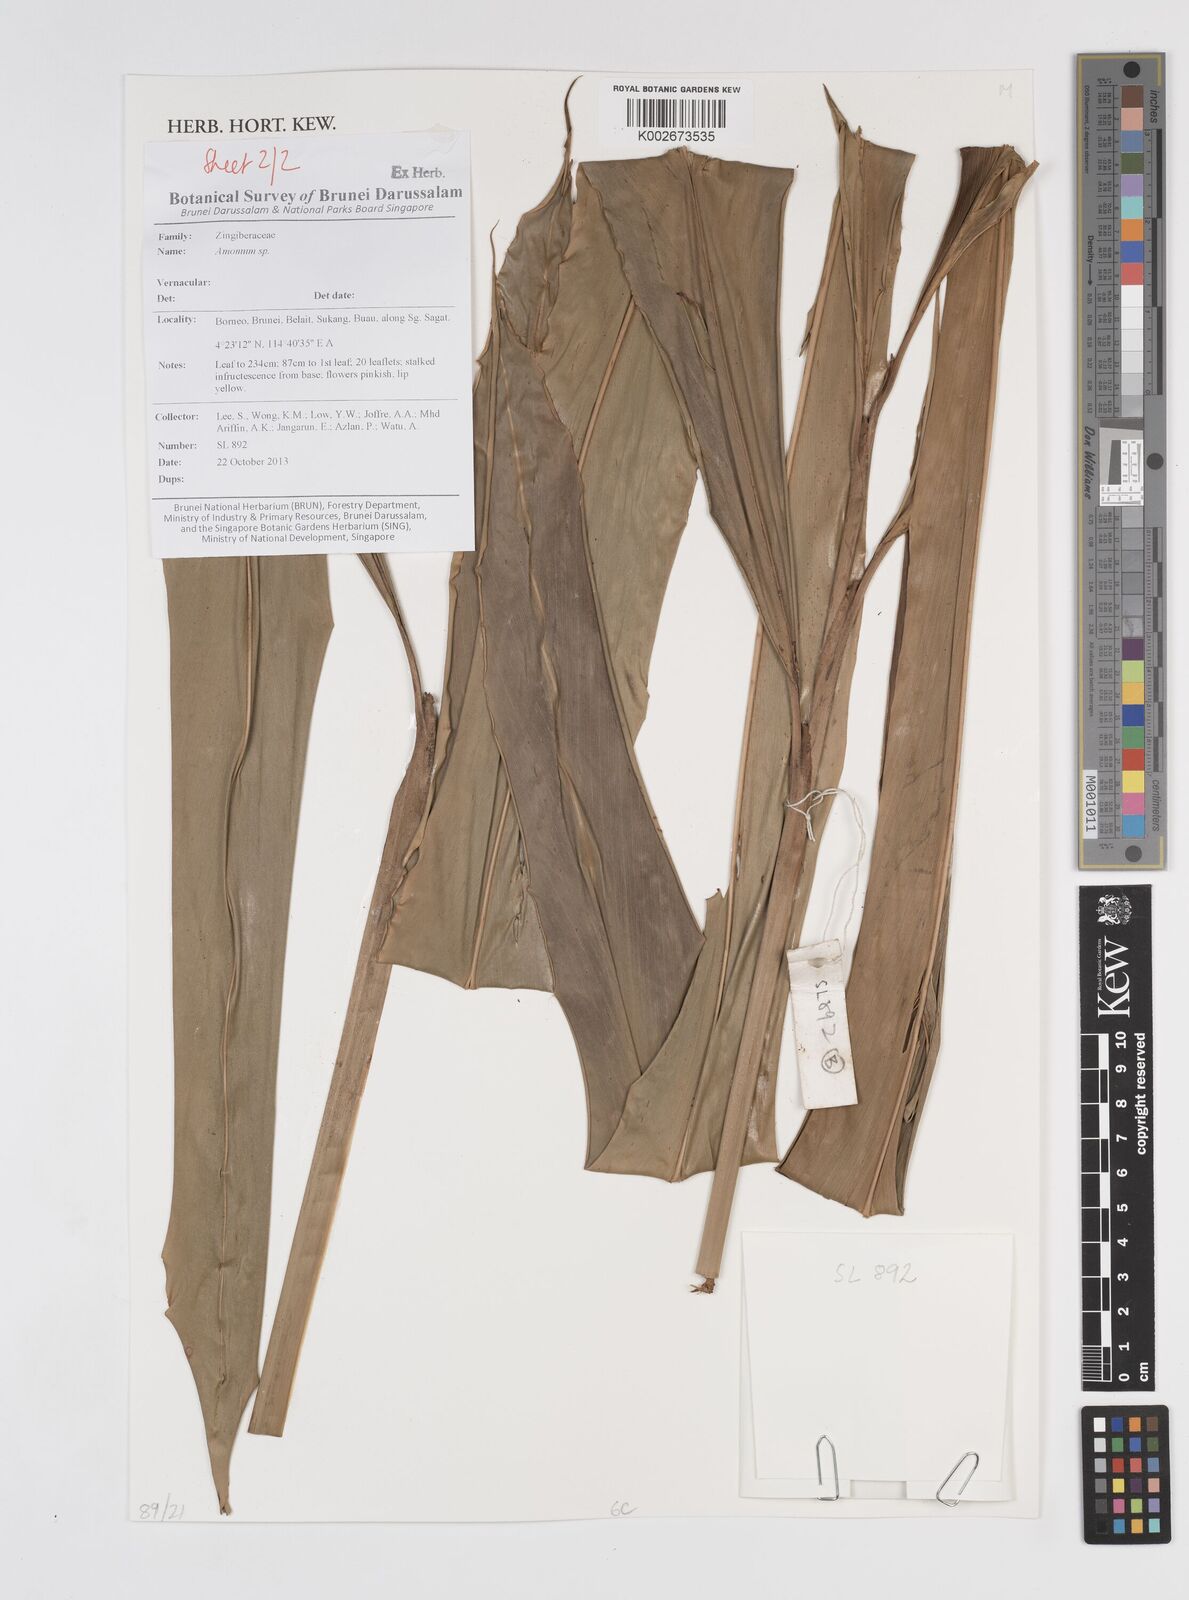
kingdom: Plantae
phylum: Tracheophyta
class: Liliopsida
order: Zingiberales
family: Zingiberaceae
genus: Amomum
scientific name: Amomum
